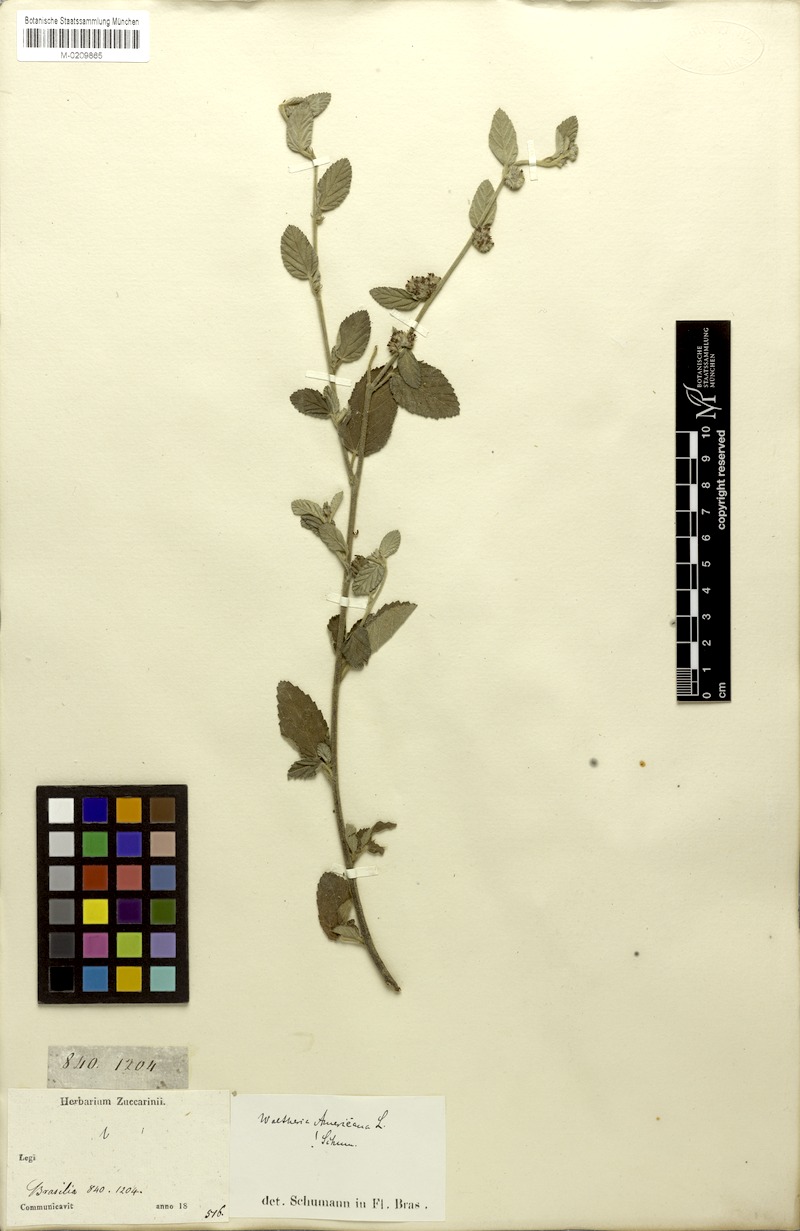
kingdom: Plantae
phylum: Tracheophyta
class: Magnoliopsida
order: Malvales
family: Malvaceae
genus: Waltheria
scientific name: Waltheria indica
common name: Leather-coat
